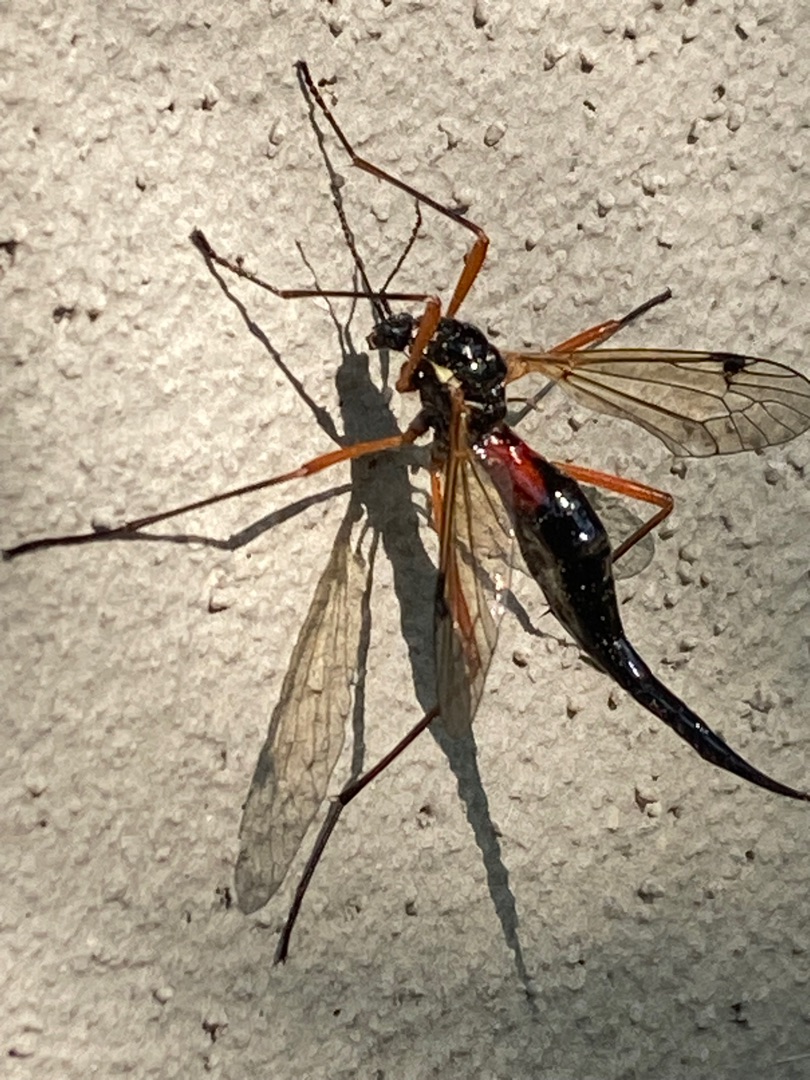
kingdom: Animalia
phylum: Arthropoda
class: Insecta
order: Diptera
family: Tipulidae
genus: Tanyptera
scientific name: Tanyptera atrata
